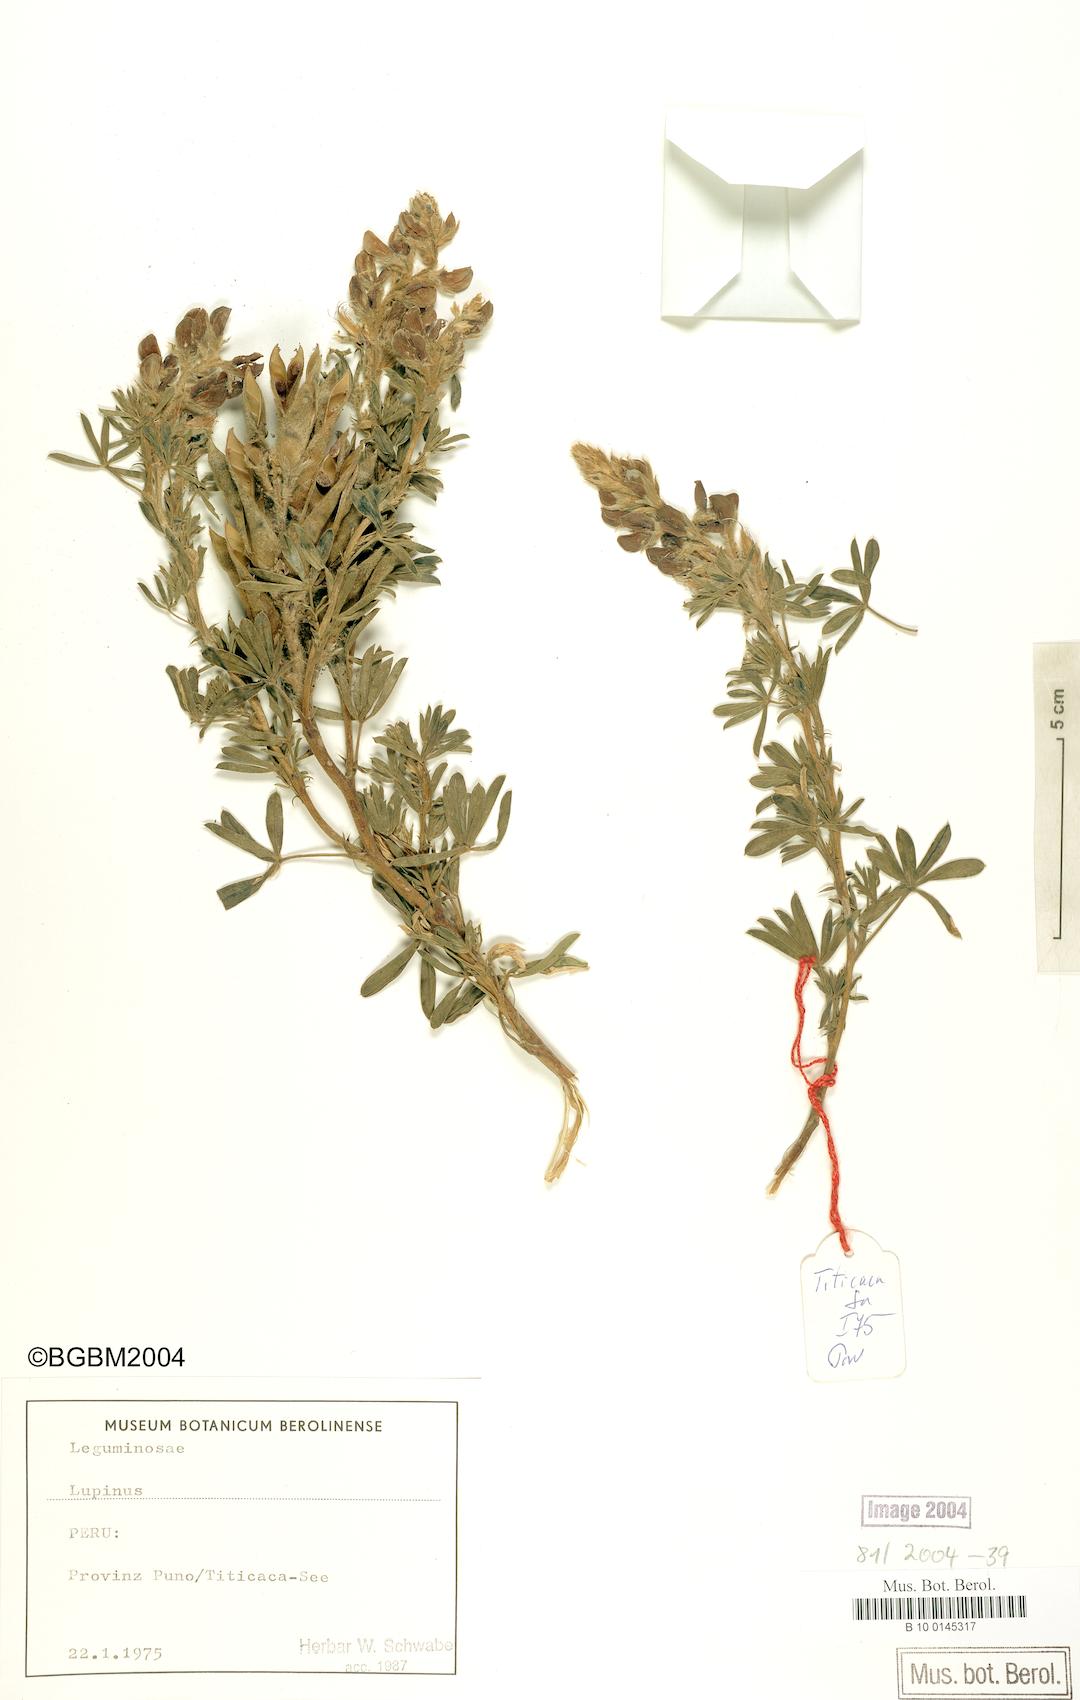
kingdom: Plantae
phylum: Tracheophyta
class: Magnoliopsida
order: Fabales
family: Fabaceae
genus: Lupinus
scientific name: Lupinus
